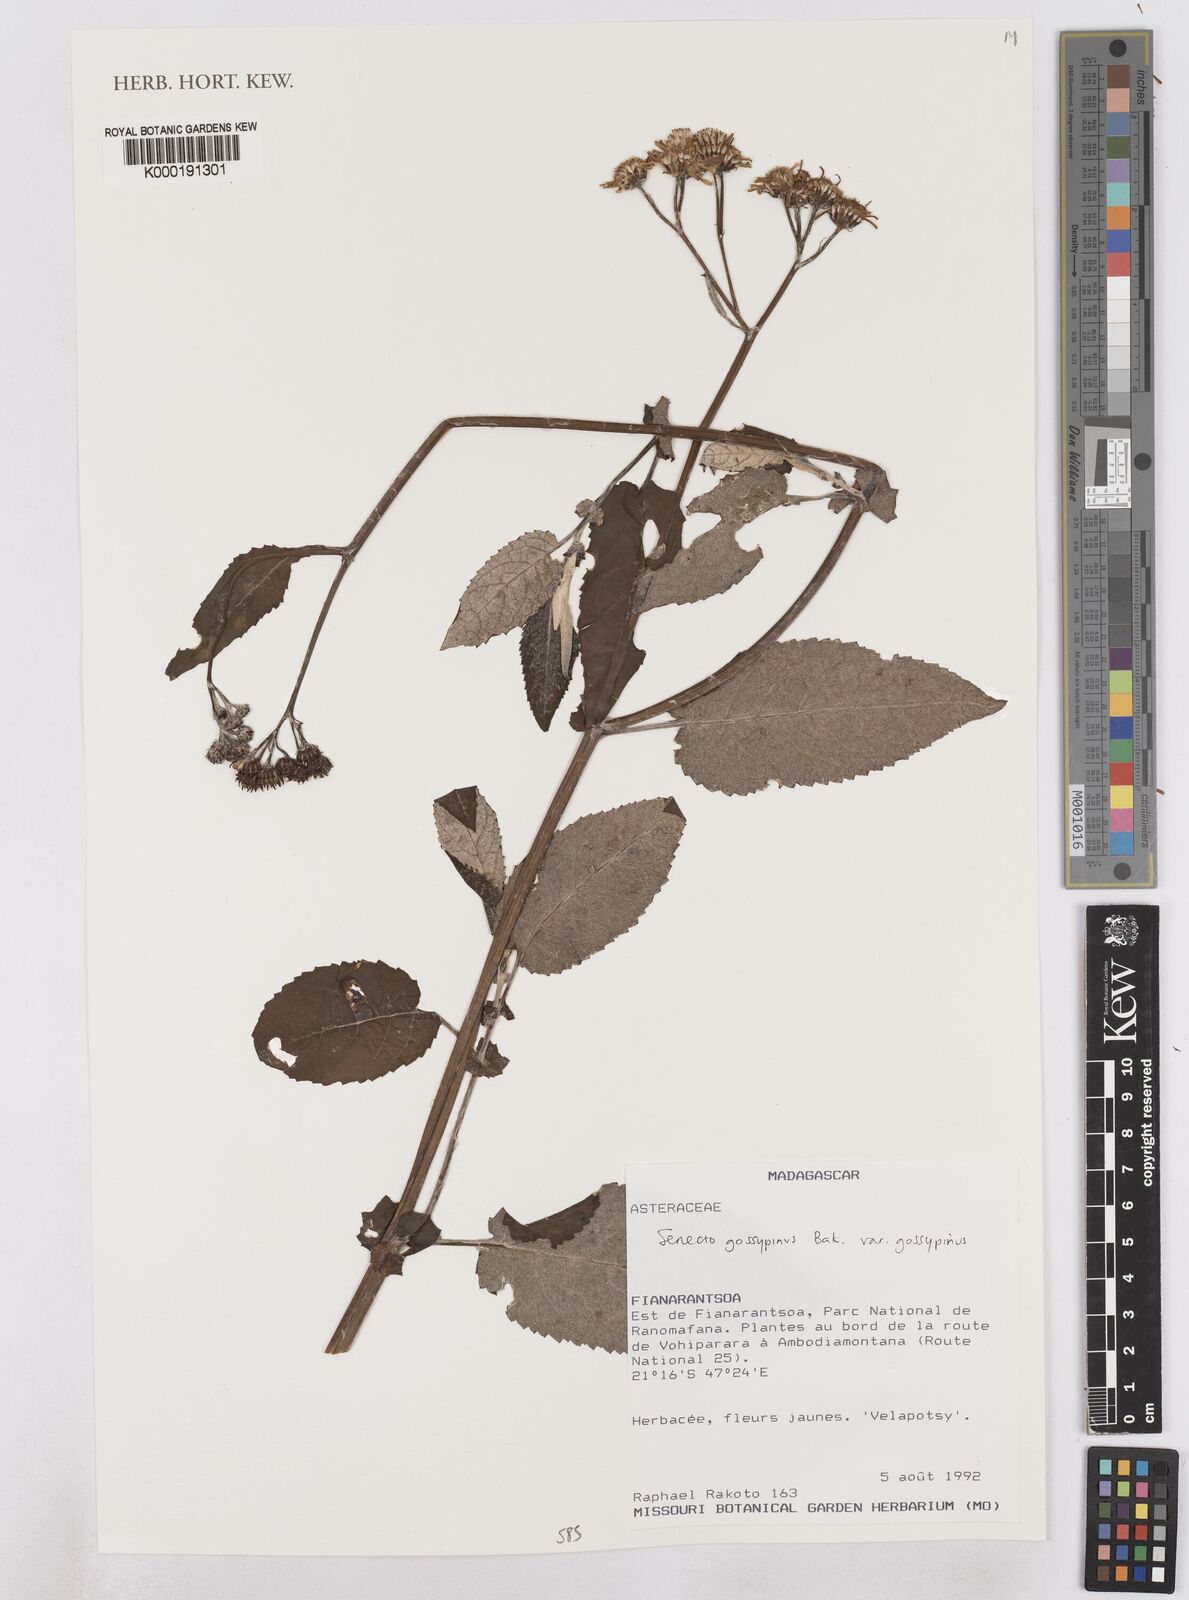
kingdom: Plantae
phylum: Tracheophyta
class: Magnoliopsida
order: Asterales
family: Asteraceae
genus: Senecio
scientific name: Senecio gossypinus
